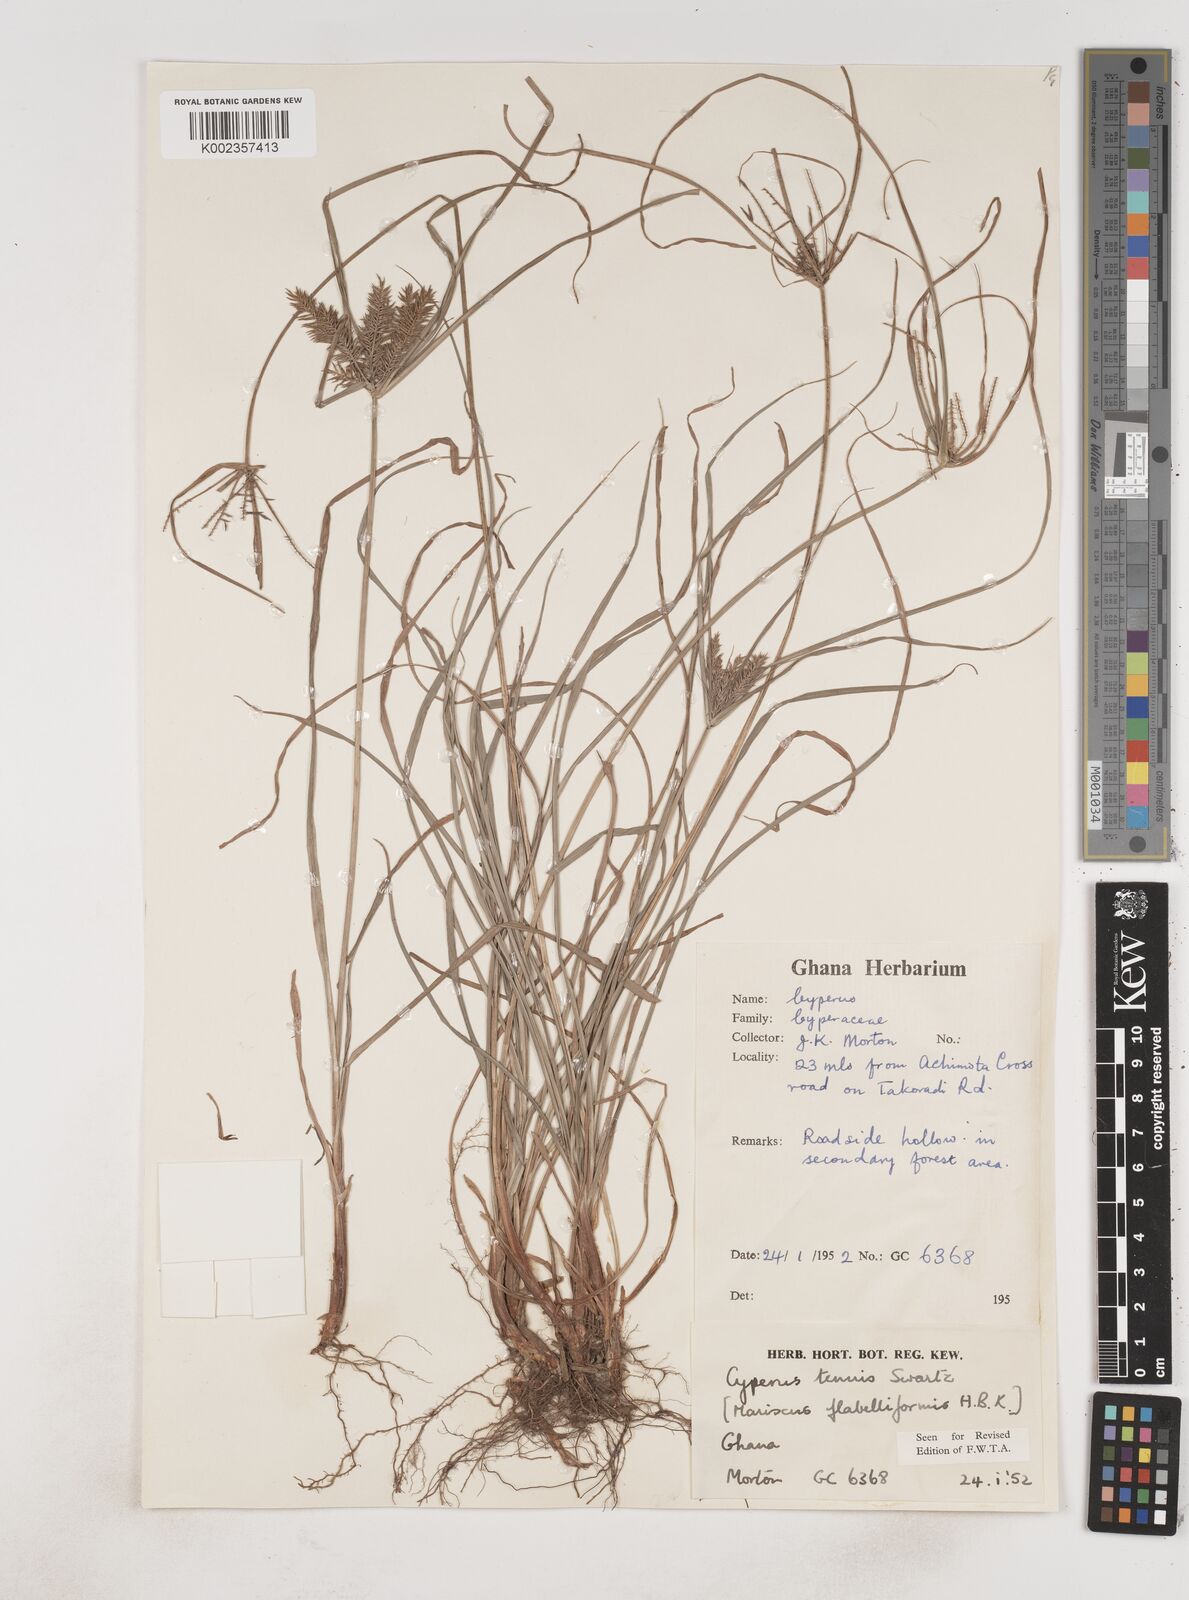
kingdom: Plantae
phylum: Tracheophyta
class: Liliopsida
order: Poales
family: Cyperaceae
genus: Cyperus
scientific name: Cyperus tenuis
